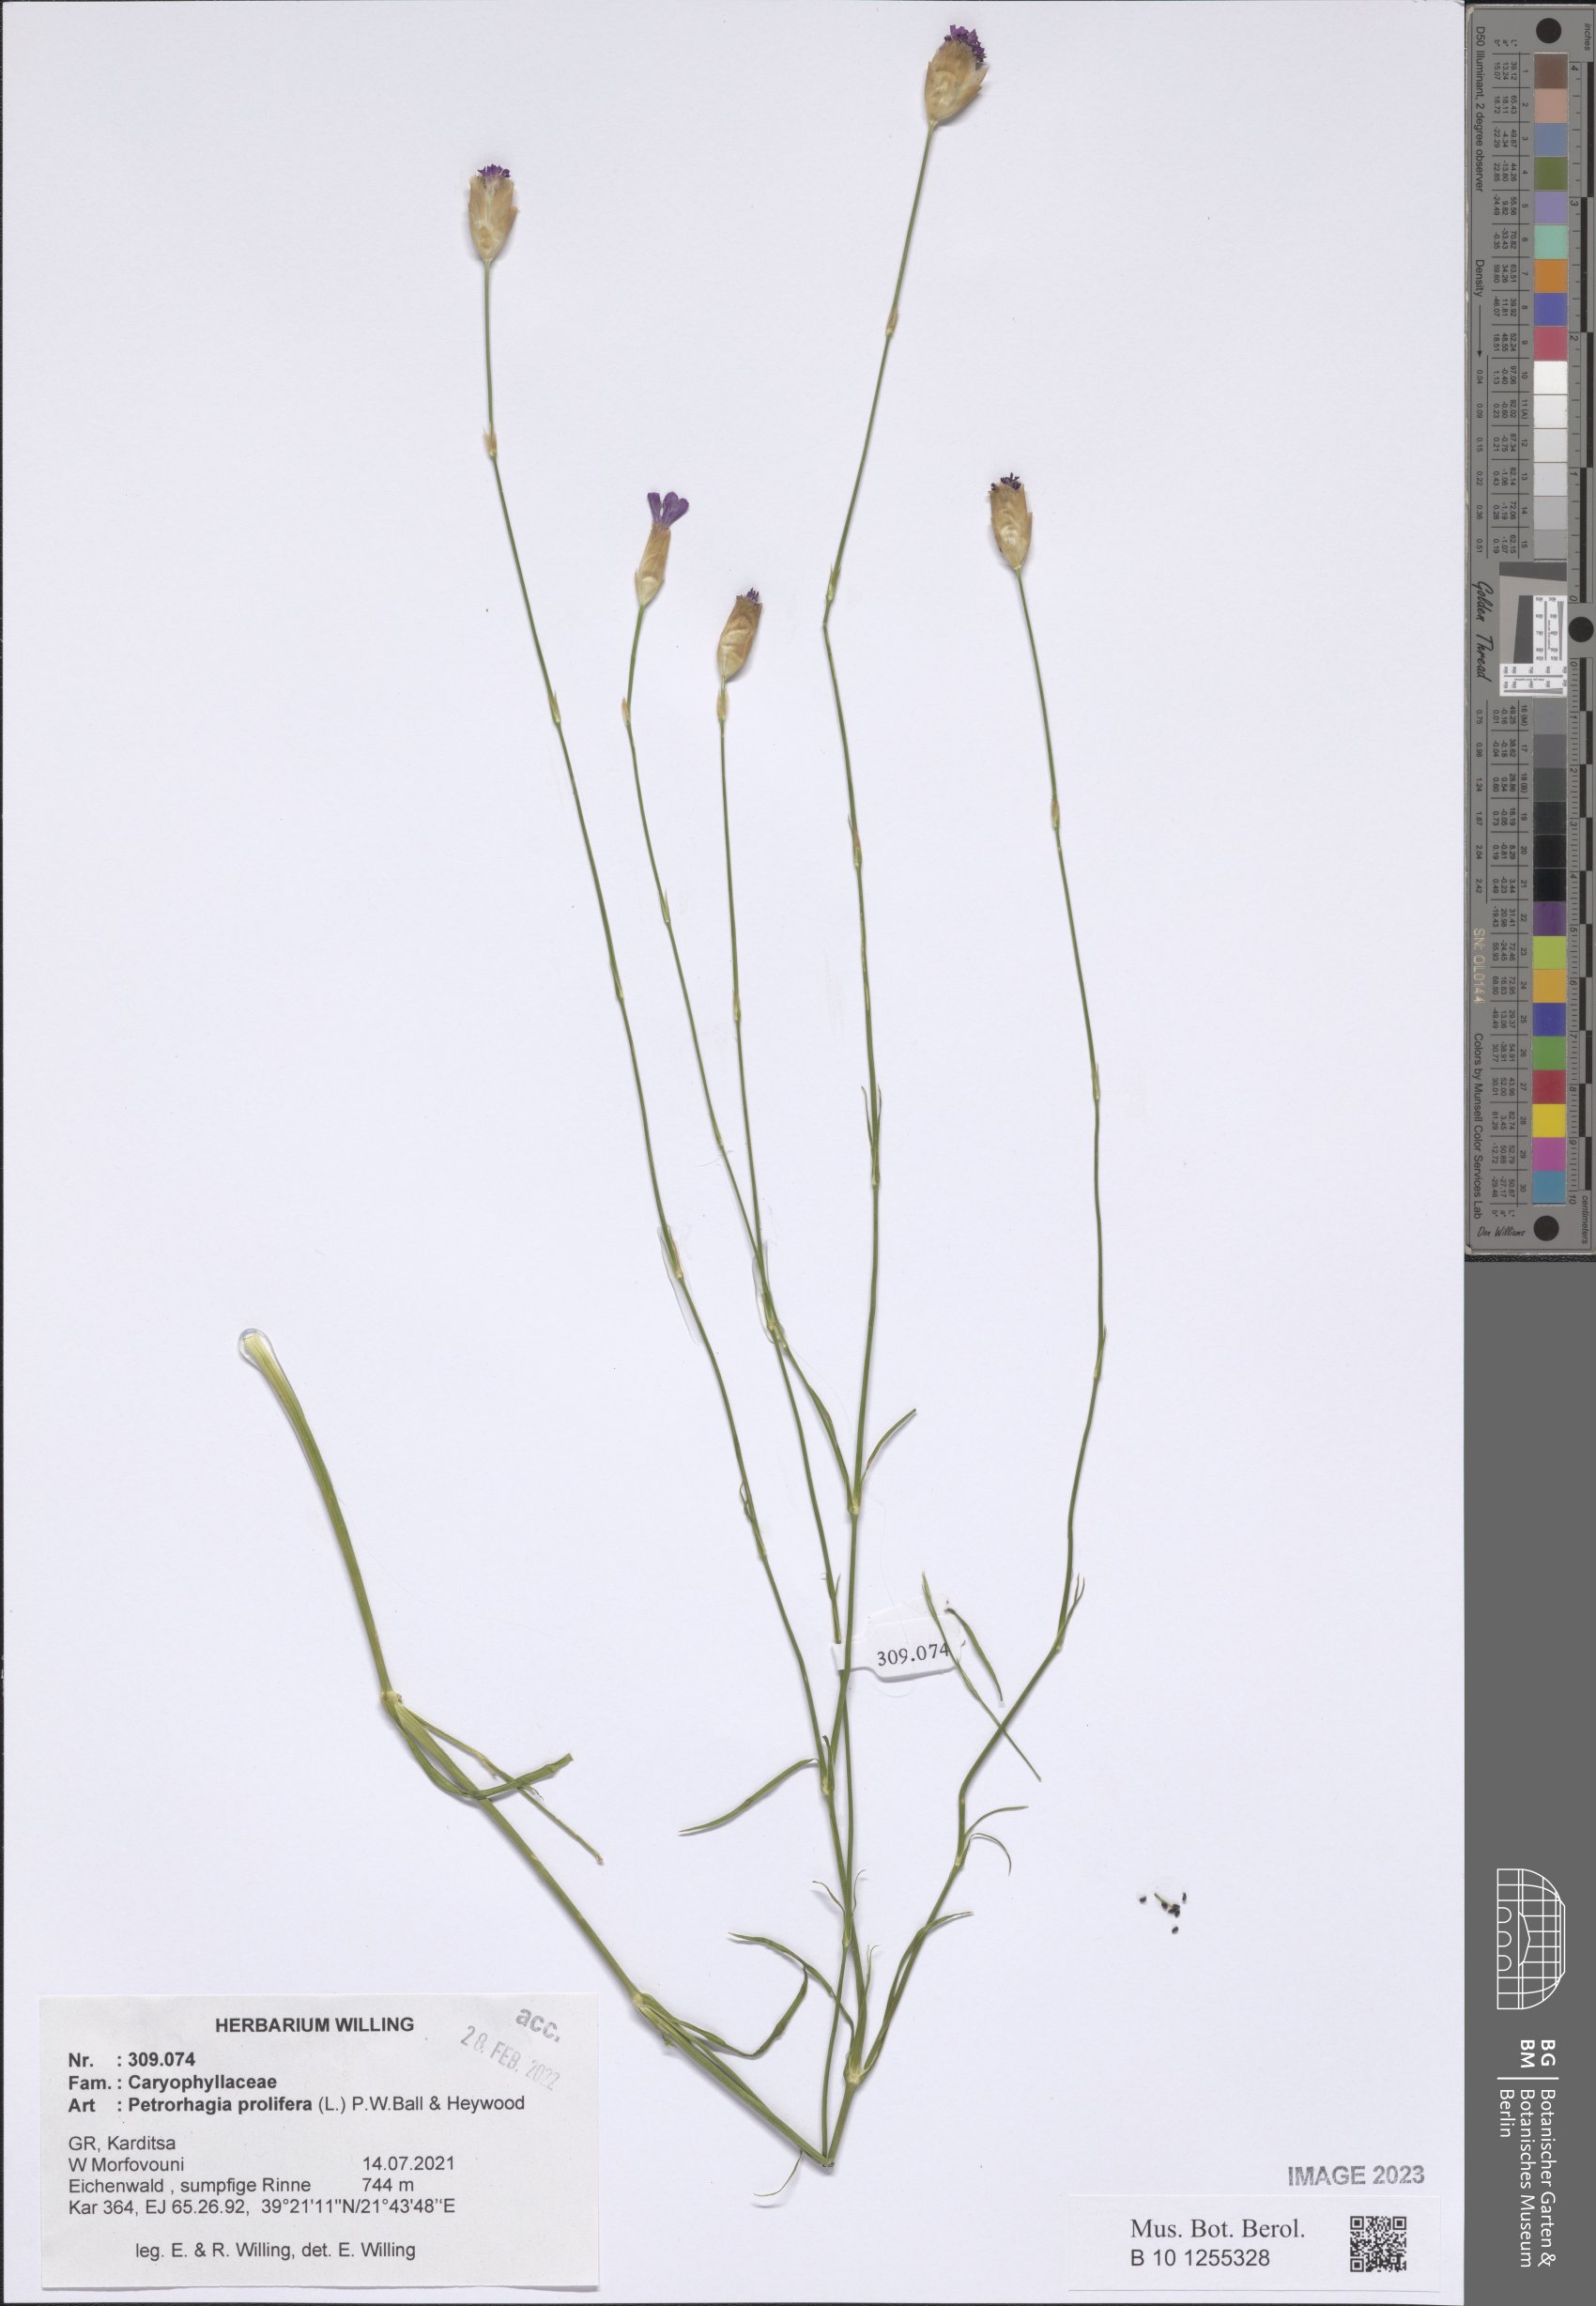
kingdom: Plantae
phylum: Tracheophyta
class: Magnoliopsida
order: Caryophyllales
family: Caryophyllaceae
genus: Petrorhagia
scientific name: Petrorhagia prolifera
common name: Proliferous pink
